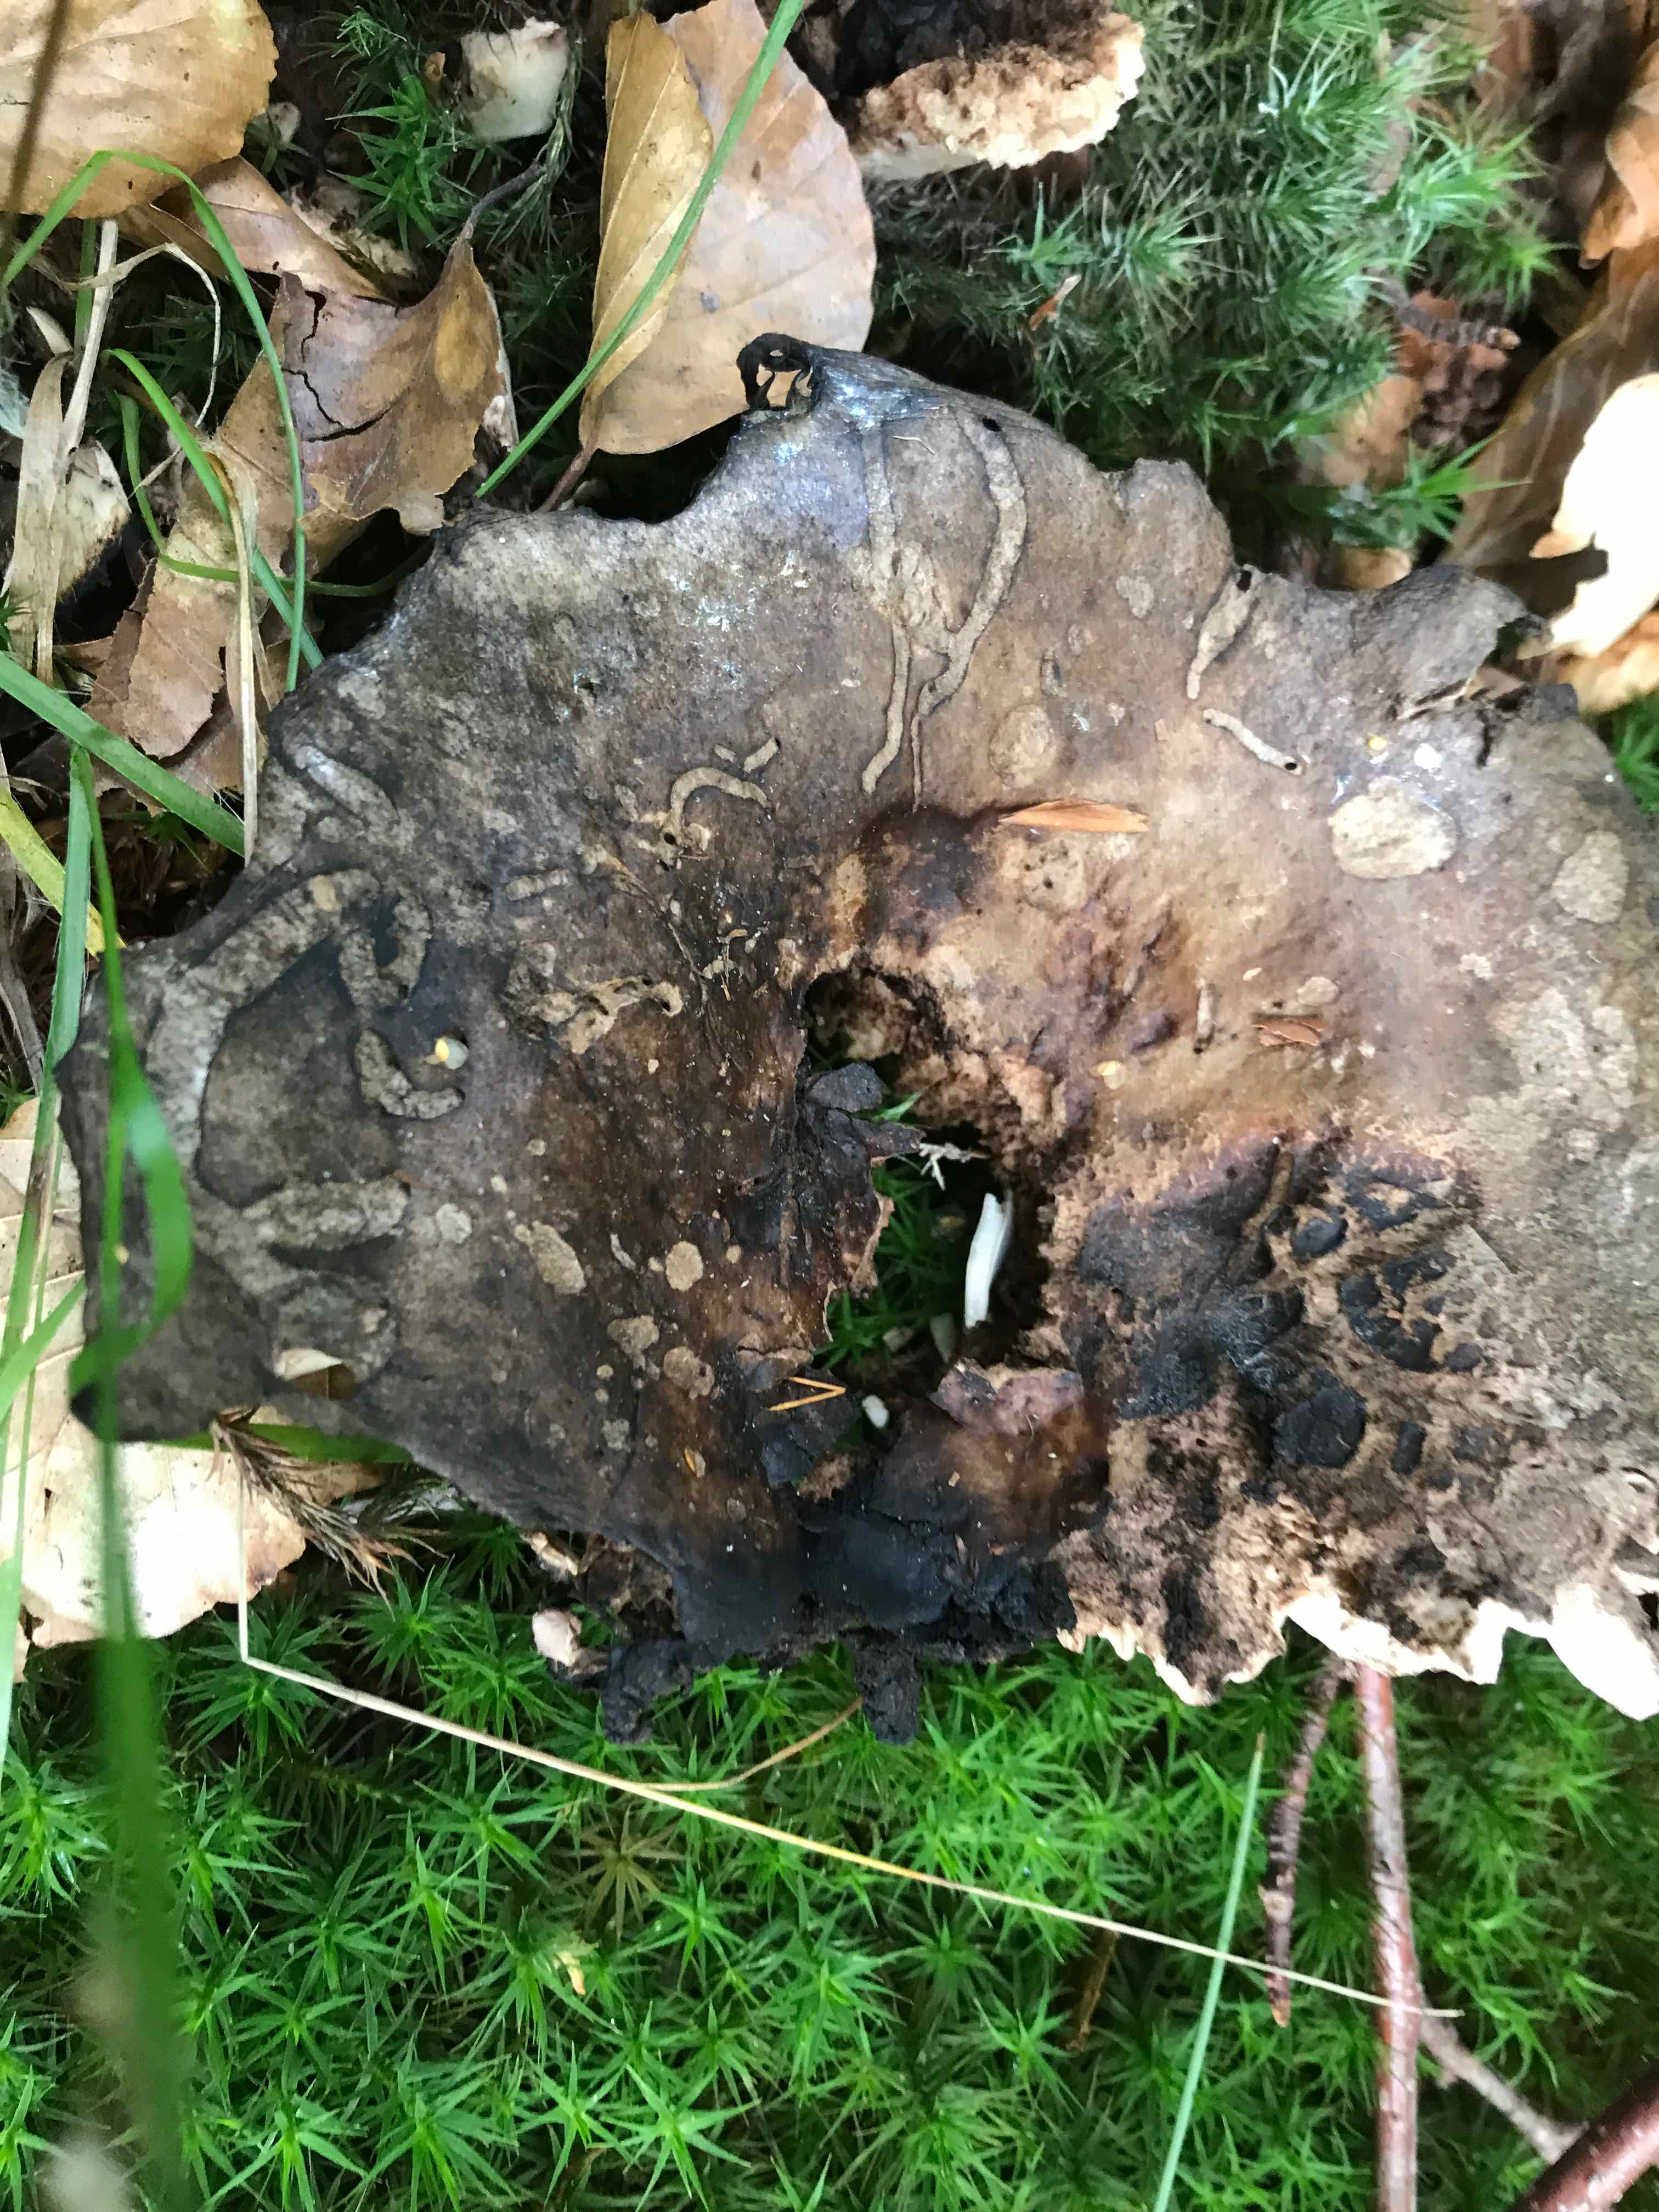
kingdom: Fungi
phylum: Basidiomycota
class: Agaricomycetes
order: Russulales
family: Russulaceae
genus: Russula
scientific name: Russula adusta
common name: sværtende skørhat
